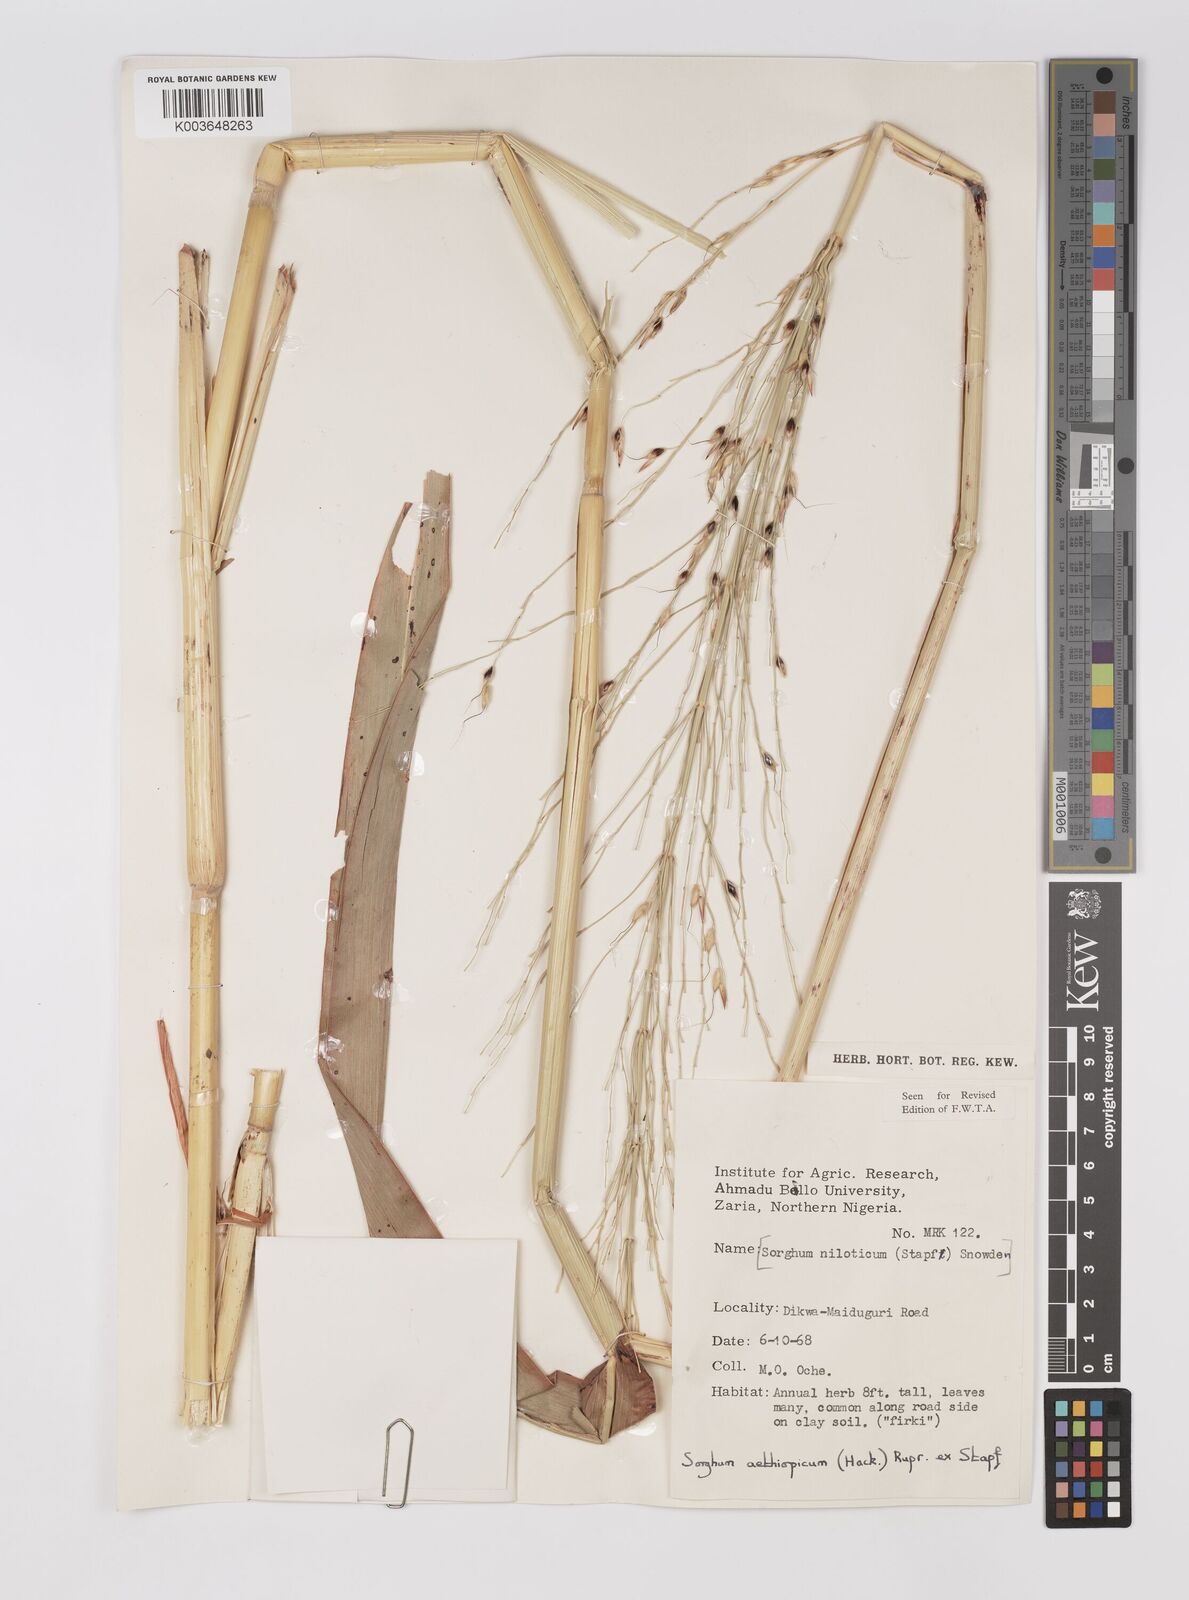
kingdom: Plantae
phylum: Tracheophyta
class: Liliopsida
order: Poales
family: Poaceae
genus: Sorghum
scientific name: Sorghum arundinaceum
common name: Sorghum
